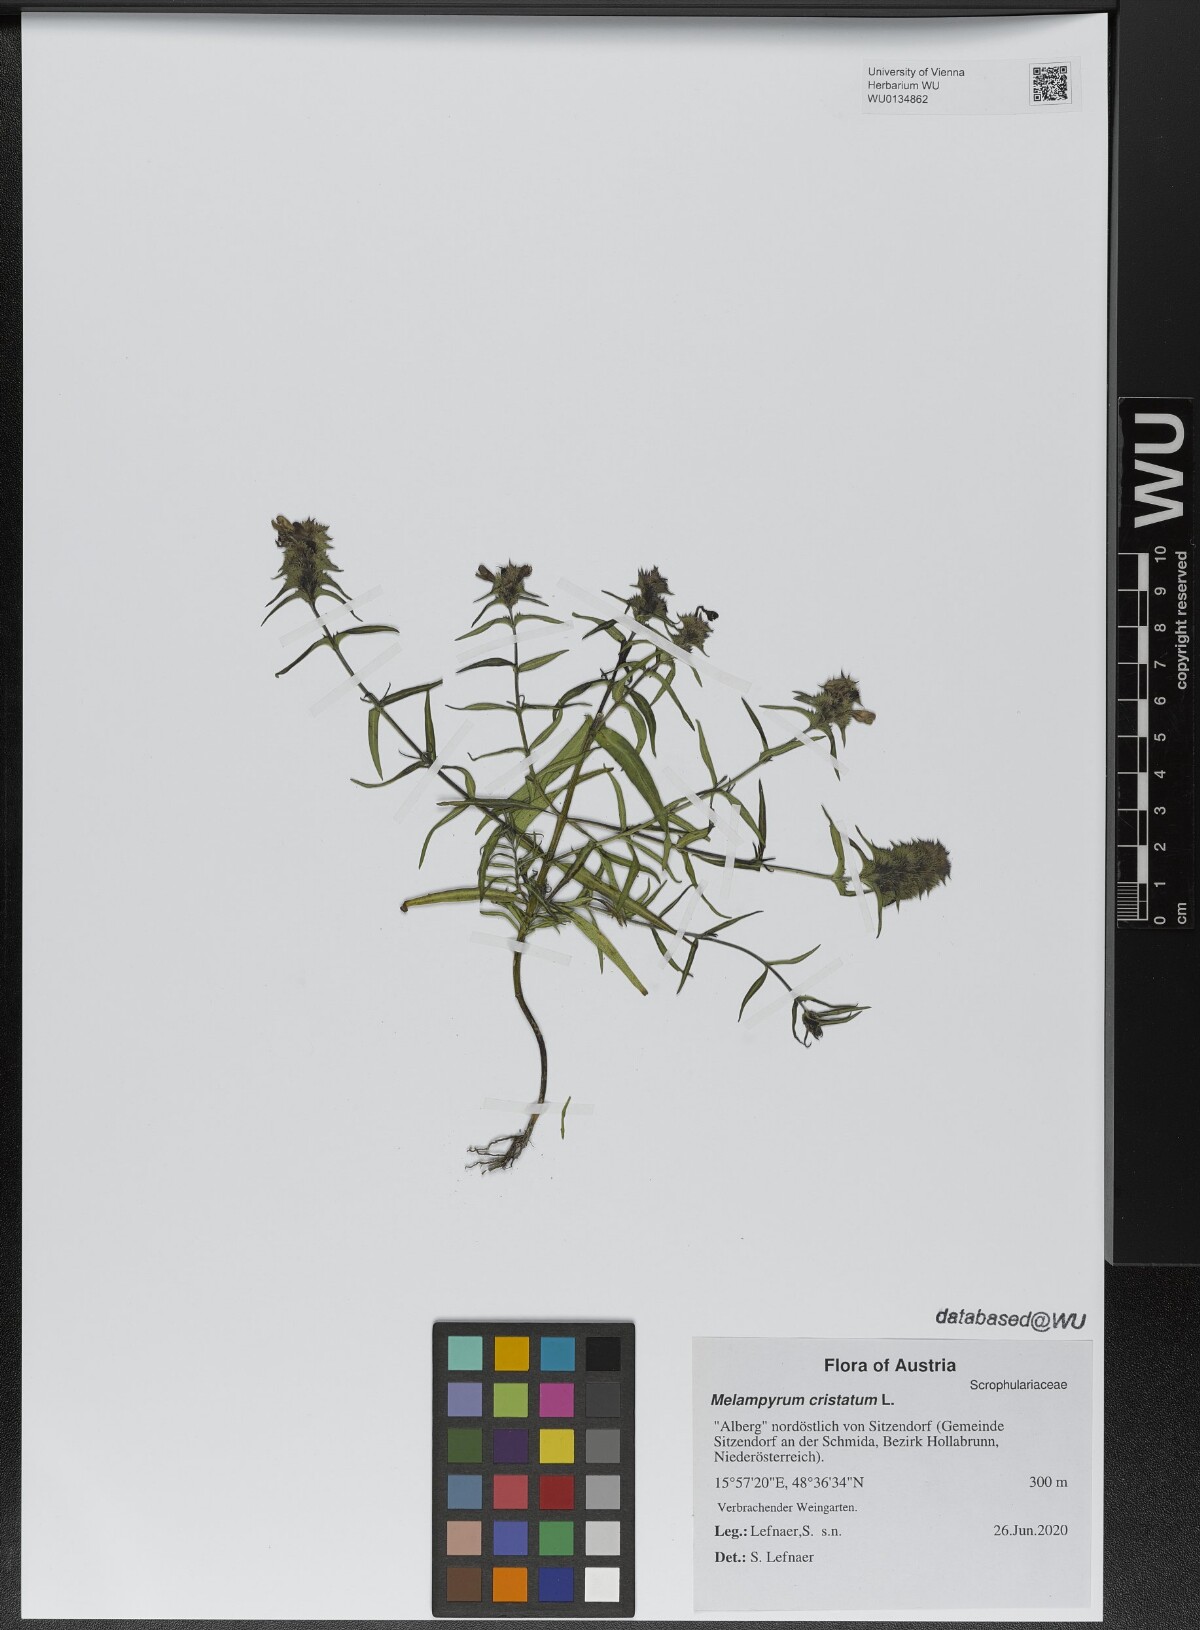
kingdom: Plantae
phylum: Tracheophyta
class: Magnoliopsida
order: Lamiales
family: Orobanchaceae
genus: Melampyrum
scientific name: Melampyrum cristatum
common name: Crested cow-wheat
